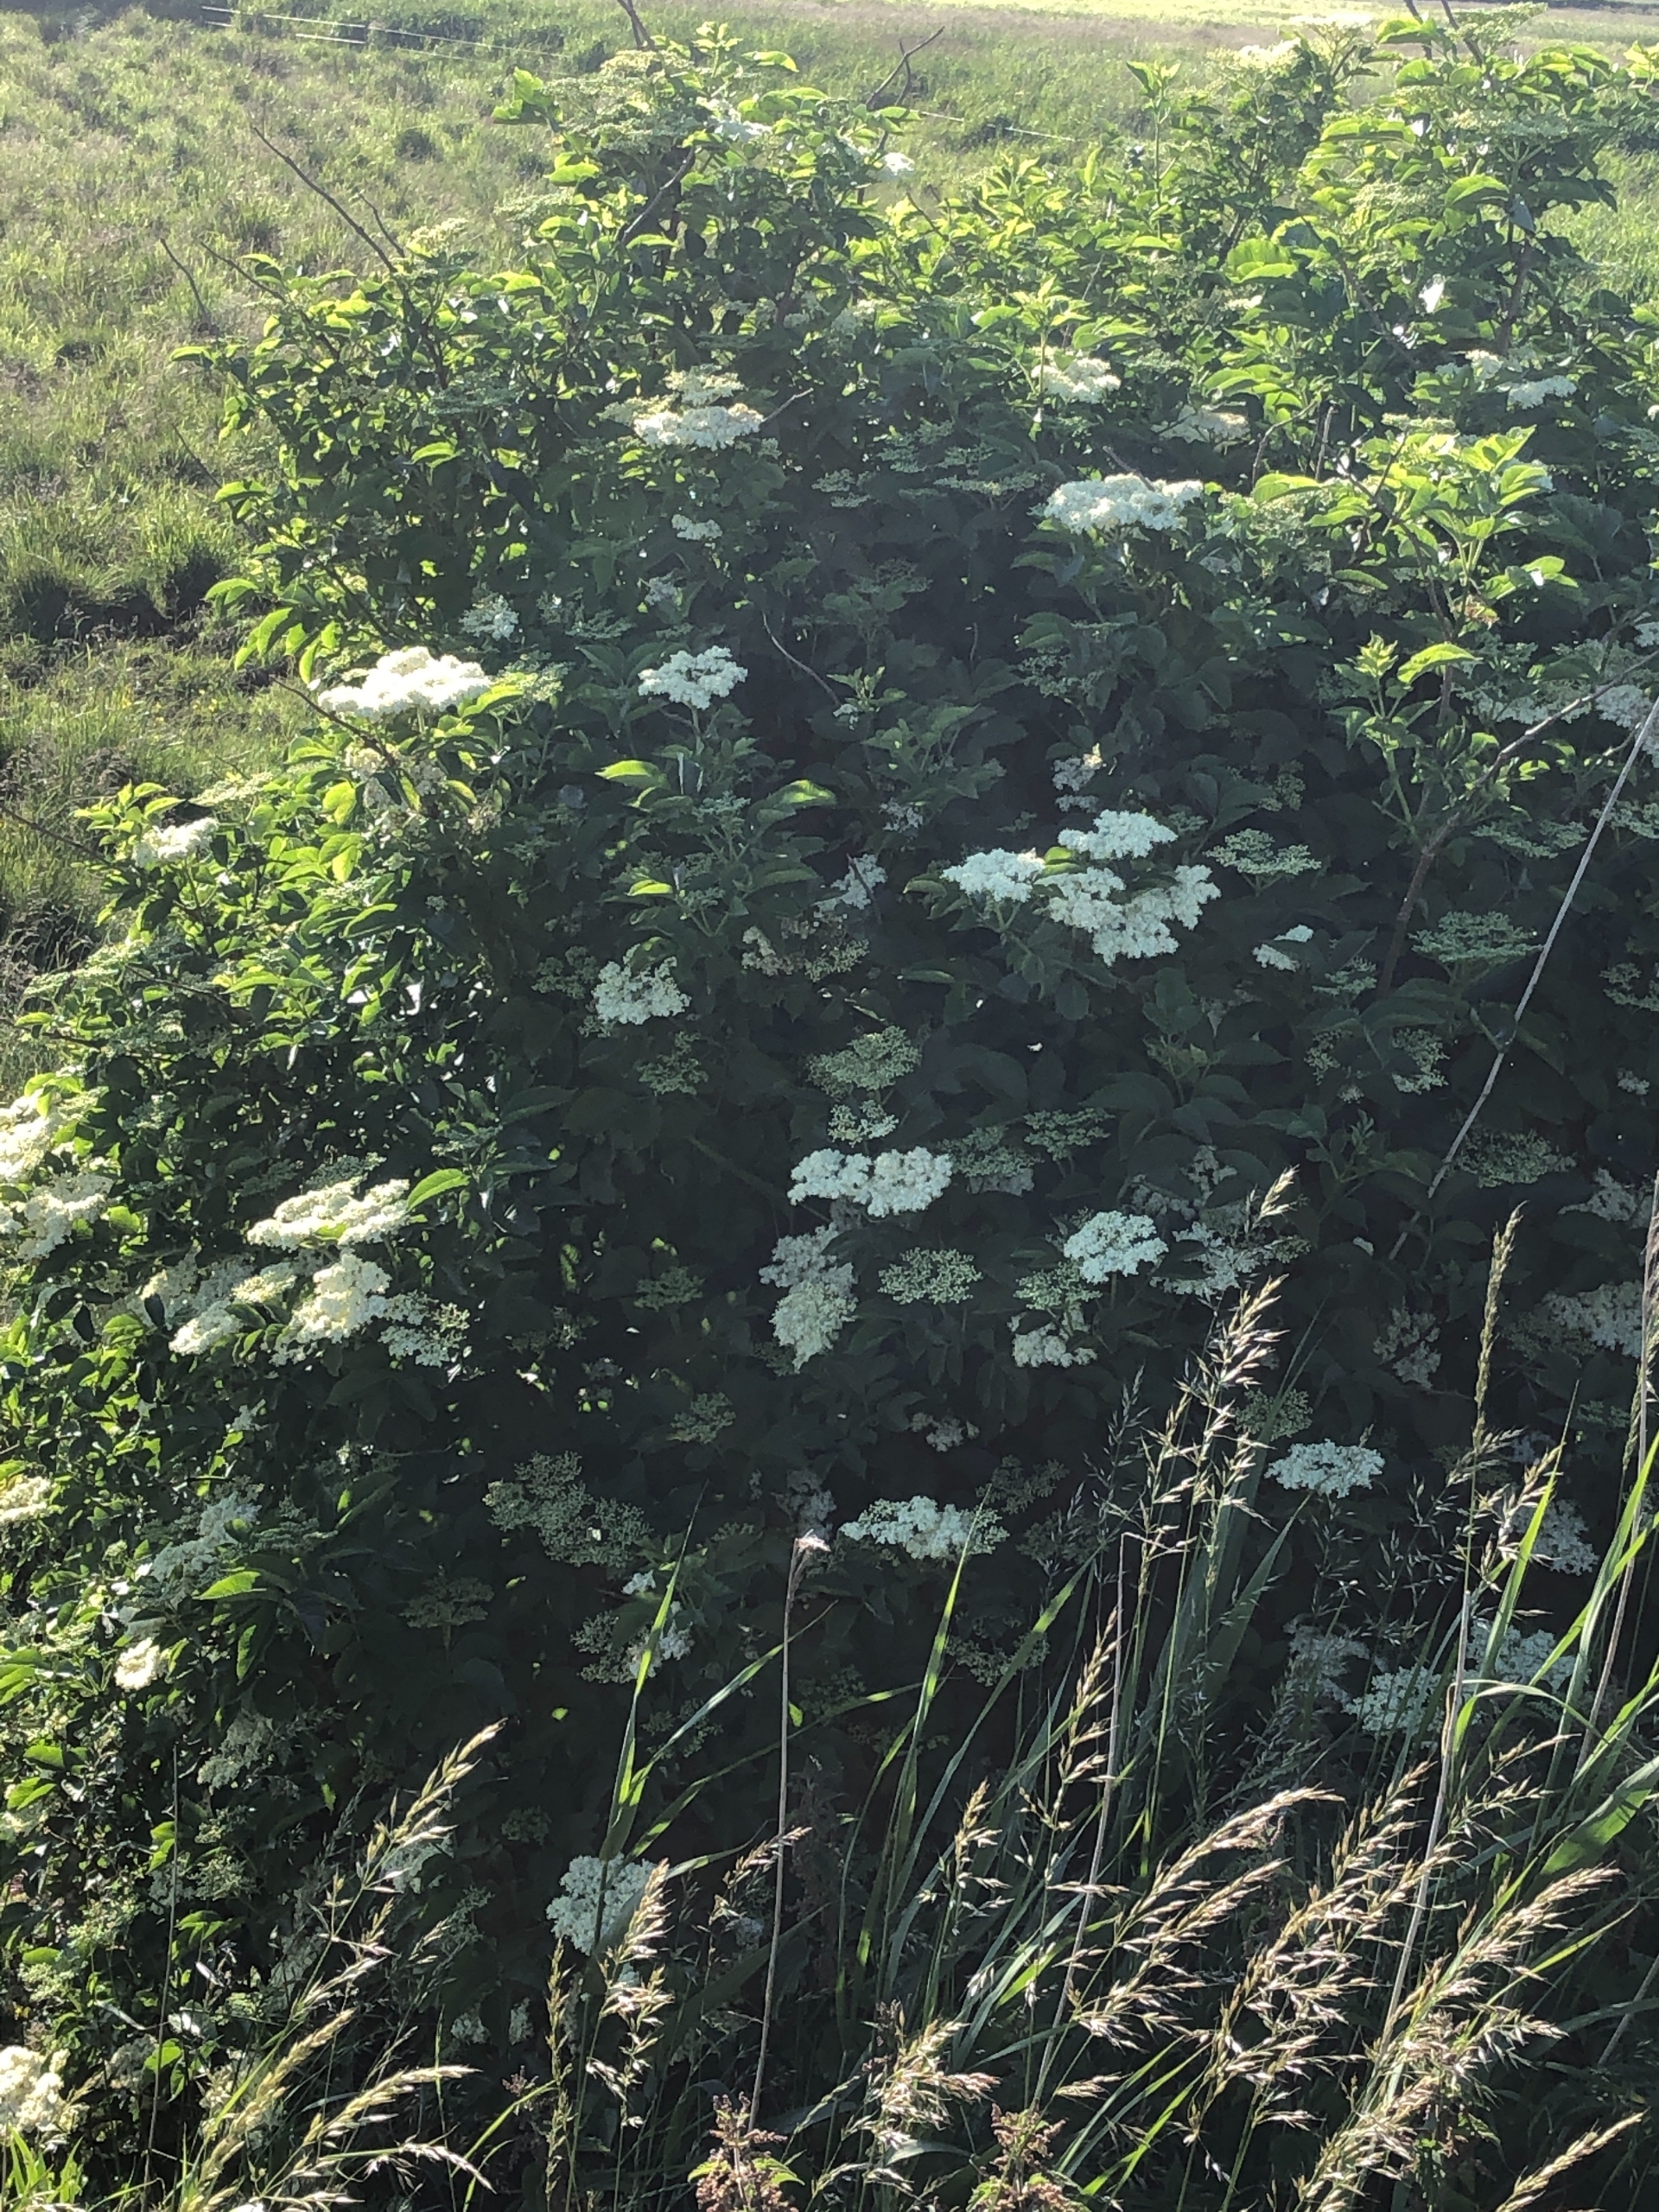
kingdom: Plantae
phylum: Tracheophyta
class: Magnoliopsida
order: Dipsacales
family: Viburnaceae
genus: Sambucus
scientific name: Sambucus nigra
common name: Almindelig hyld
